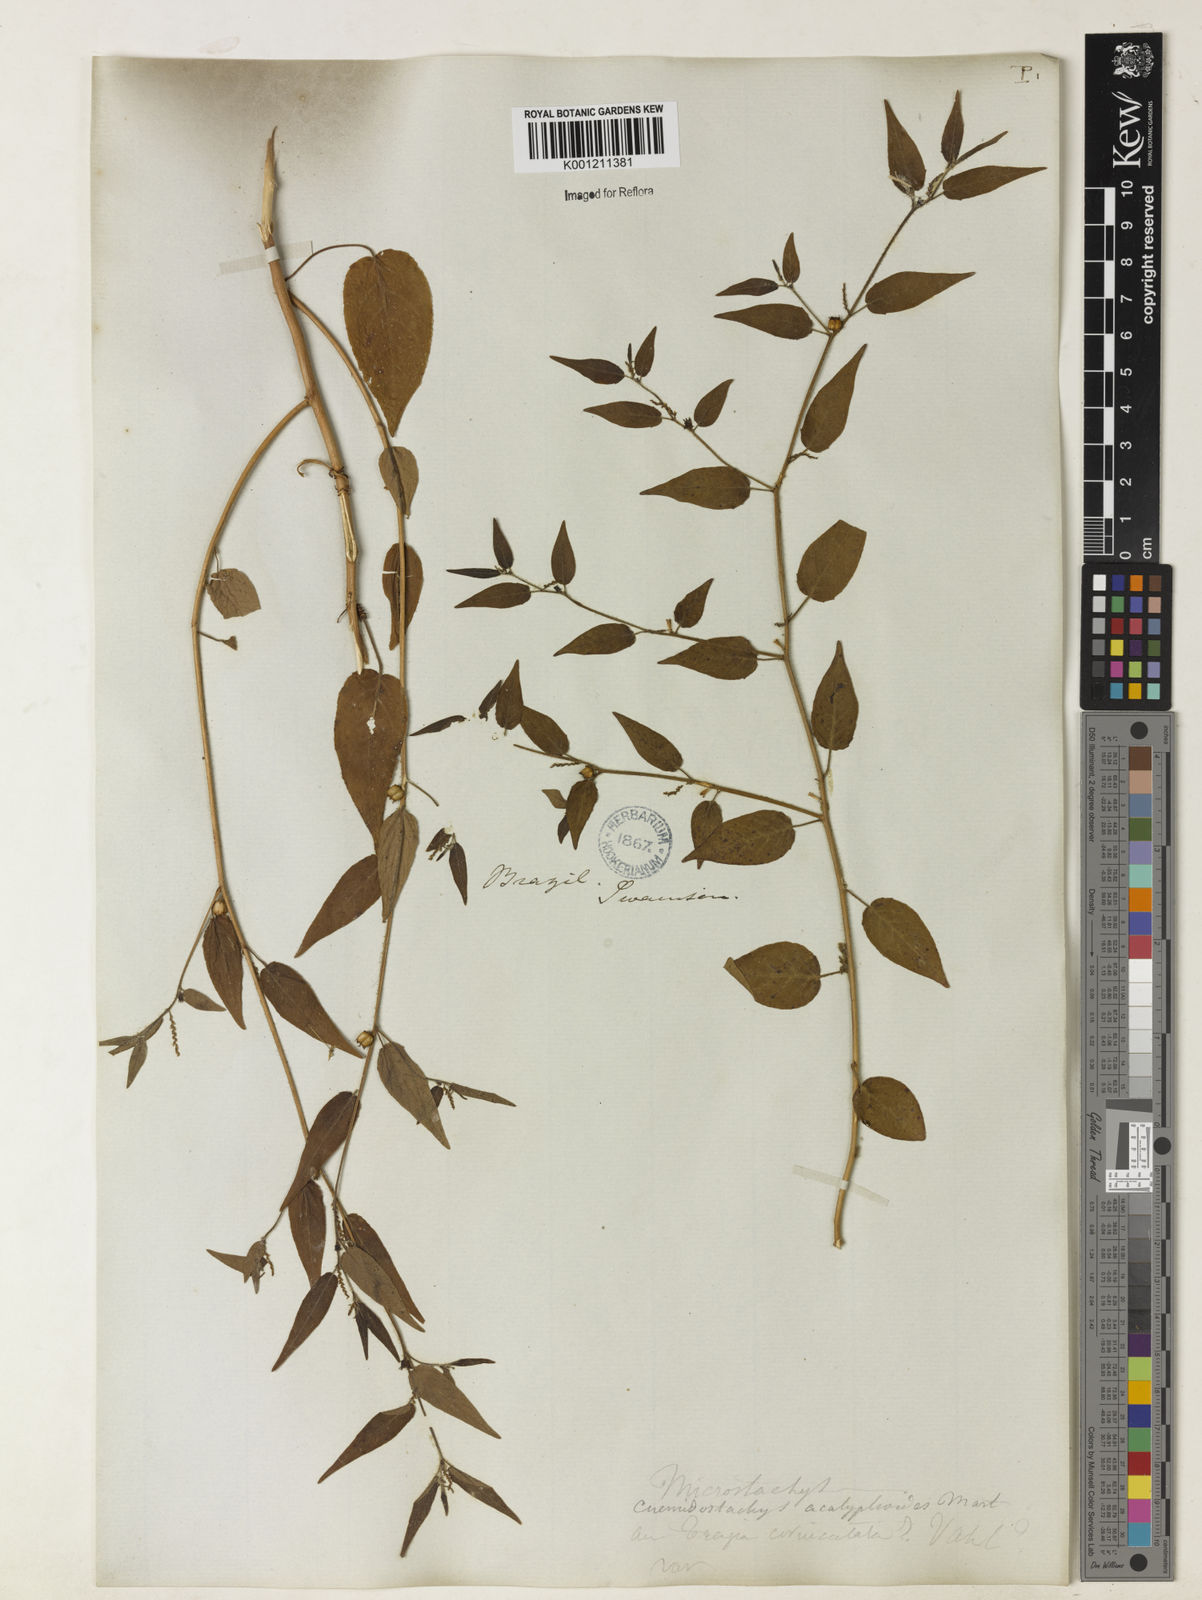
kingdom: Plantae
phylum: Tracheophyta
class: Magnoliopsida
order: Malpighiales
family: Euphorbiaceae
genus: Microstachys
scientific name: Microstachys corniculata
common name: Hato tejas
